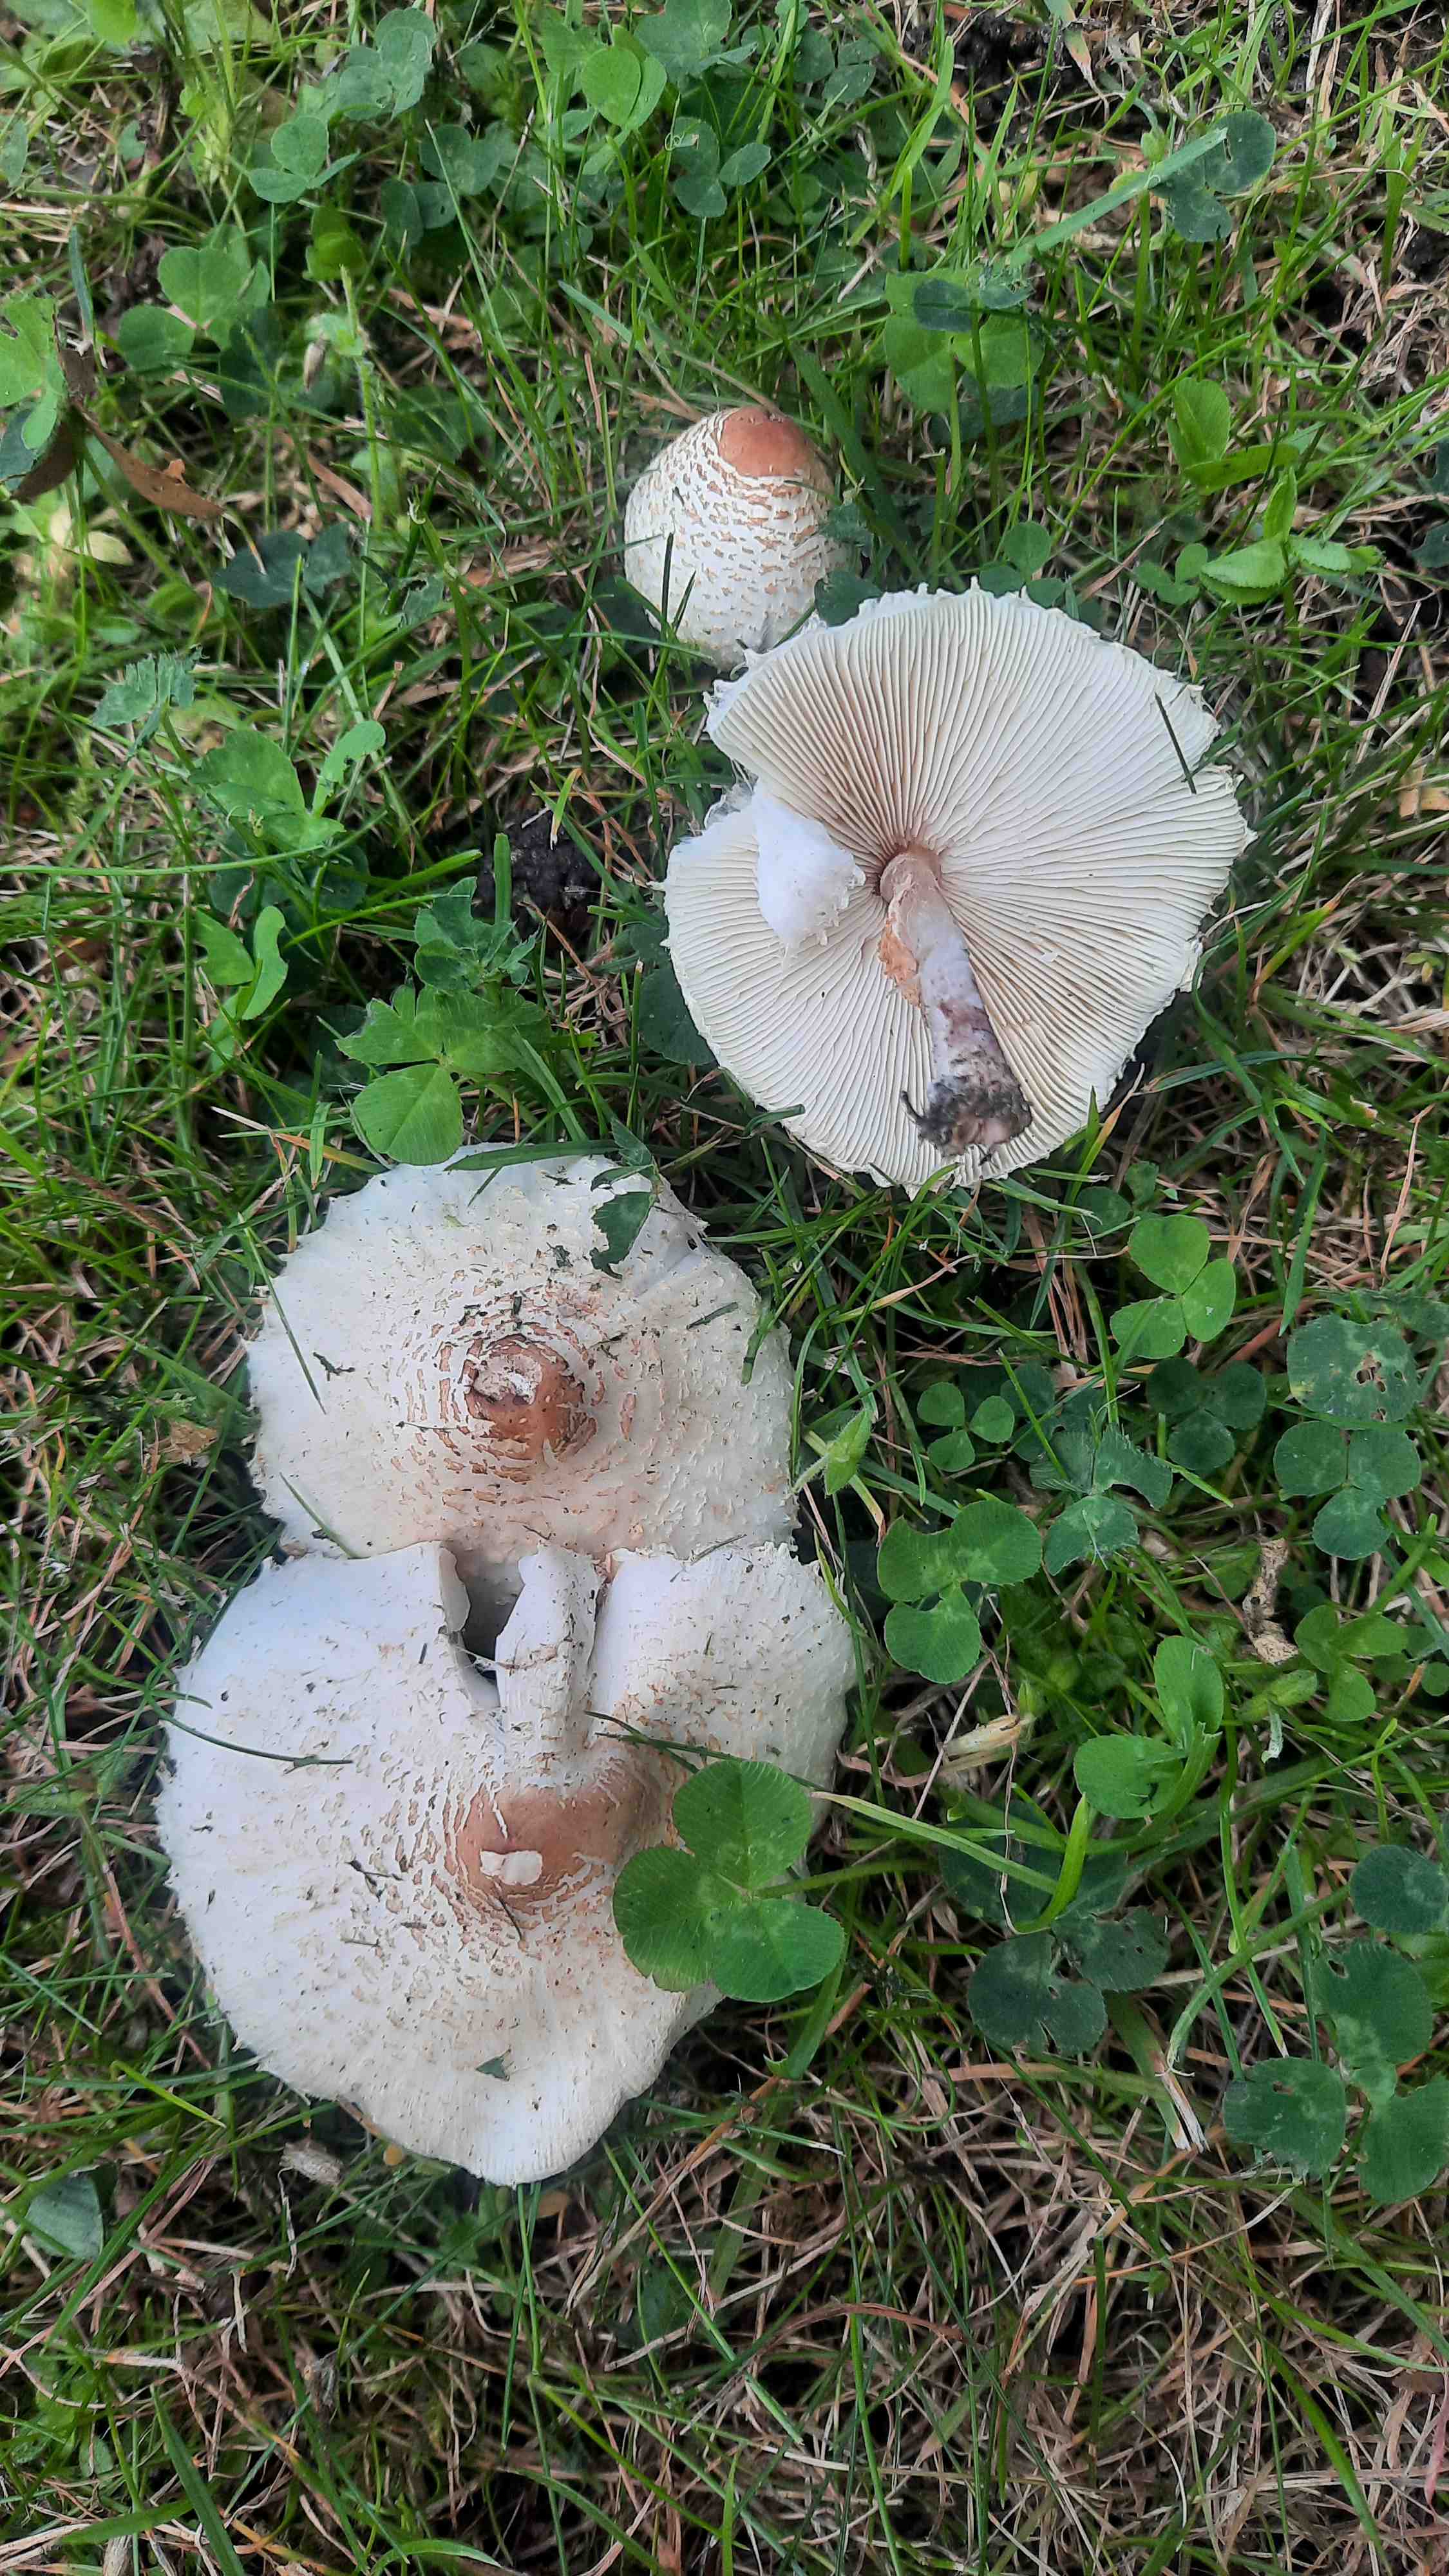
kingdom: Fungi
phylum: Basidiomycota
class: Agaricomycetes
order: Agaricales
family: Agaricaceae
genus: Lepiota
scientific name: Lepiota cristata
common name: stinkende parasolhat
